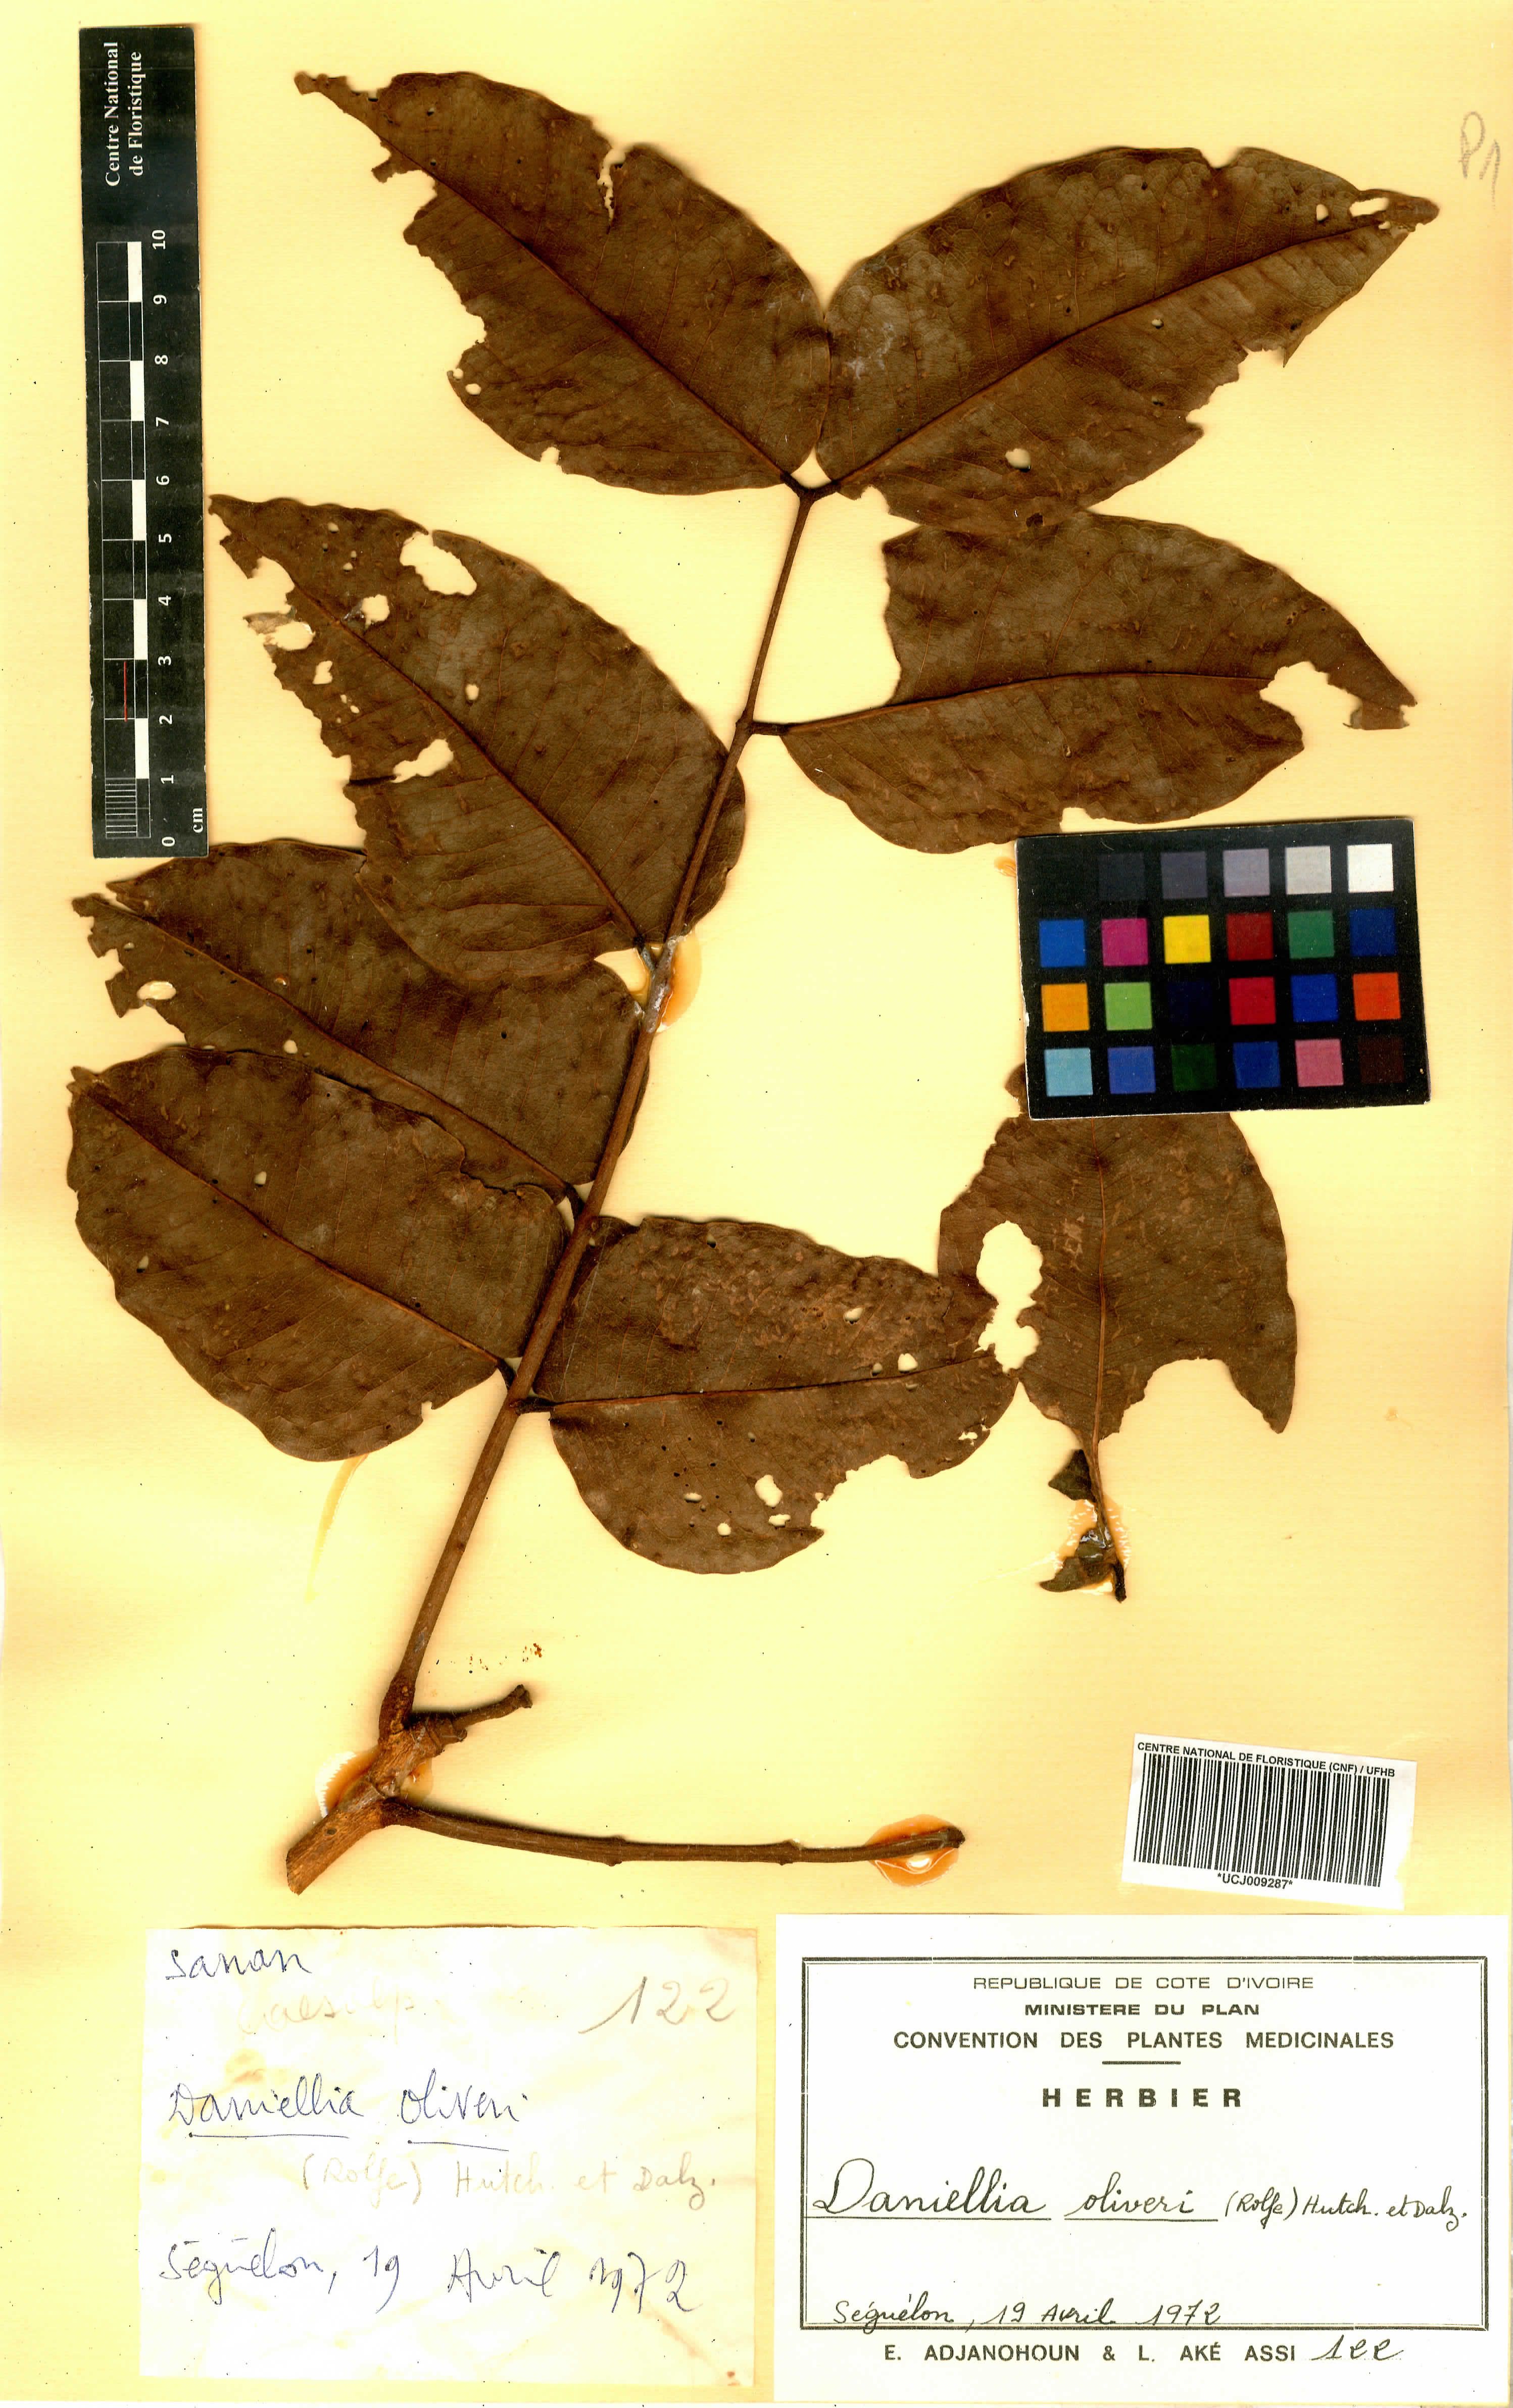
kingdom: Plantae
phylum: Tracheophyta
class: Magnoliopsida
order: Fabales
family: Fabaceae
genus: Daniellia
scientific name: Daniellia oliveri
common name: African copaiba balsamtree
